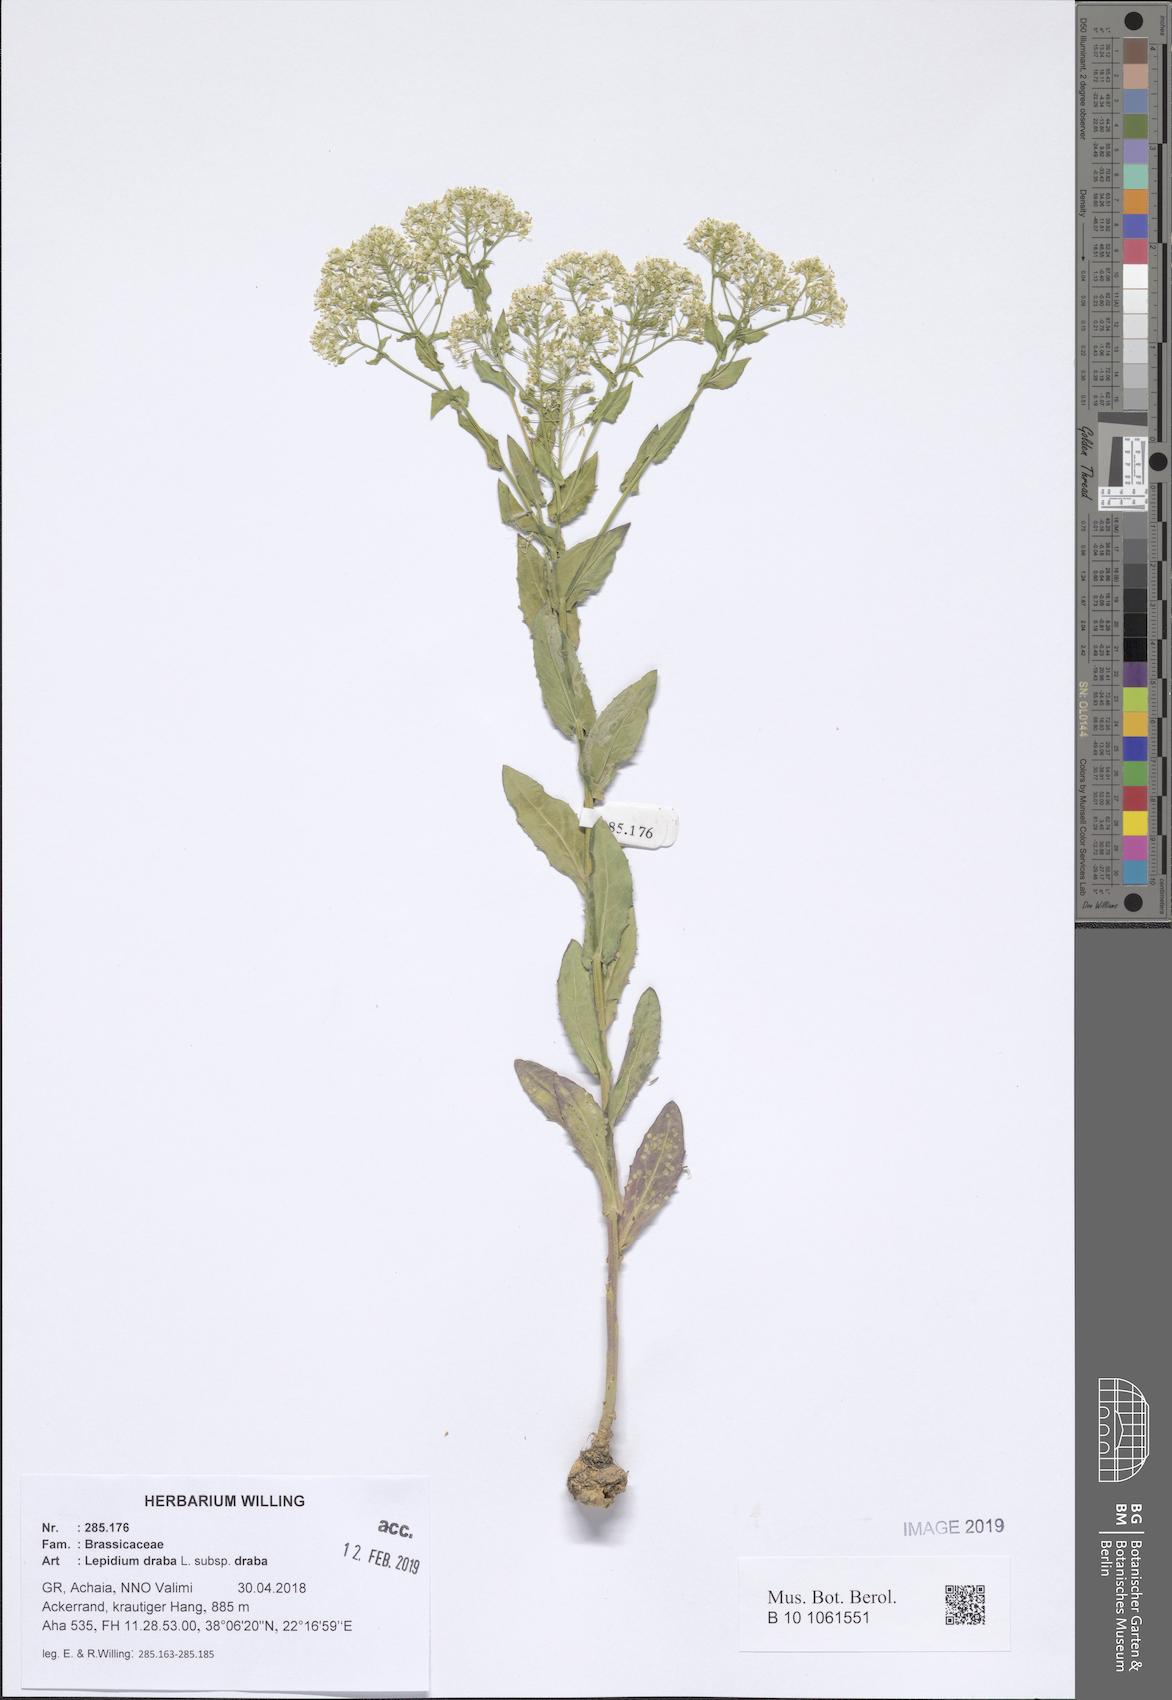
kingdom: Plantae
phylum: Tracheophyta
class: Magnoliopsida
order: Brassicales
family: Brassicaceae
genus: Lepidium
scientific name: Lepidium draba
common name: Hoary cress
